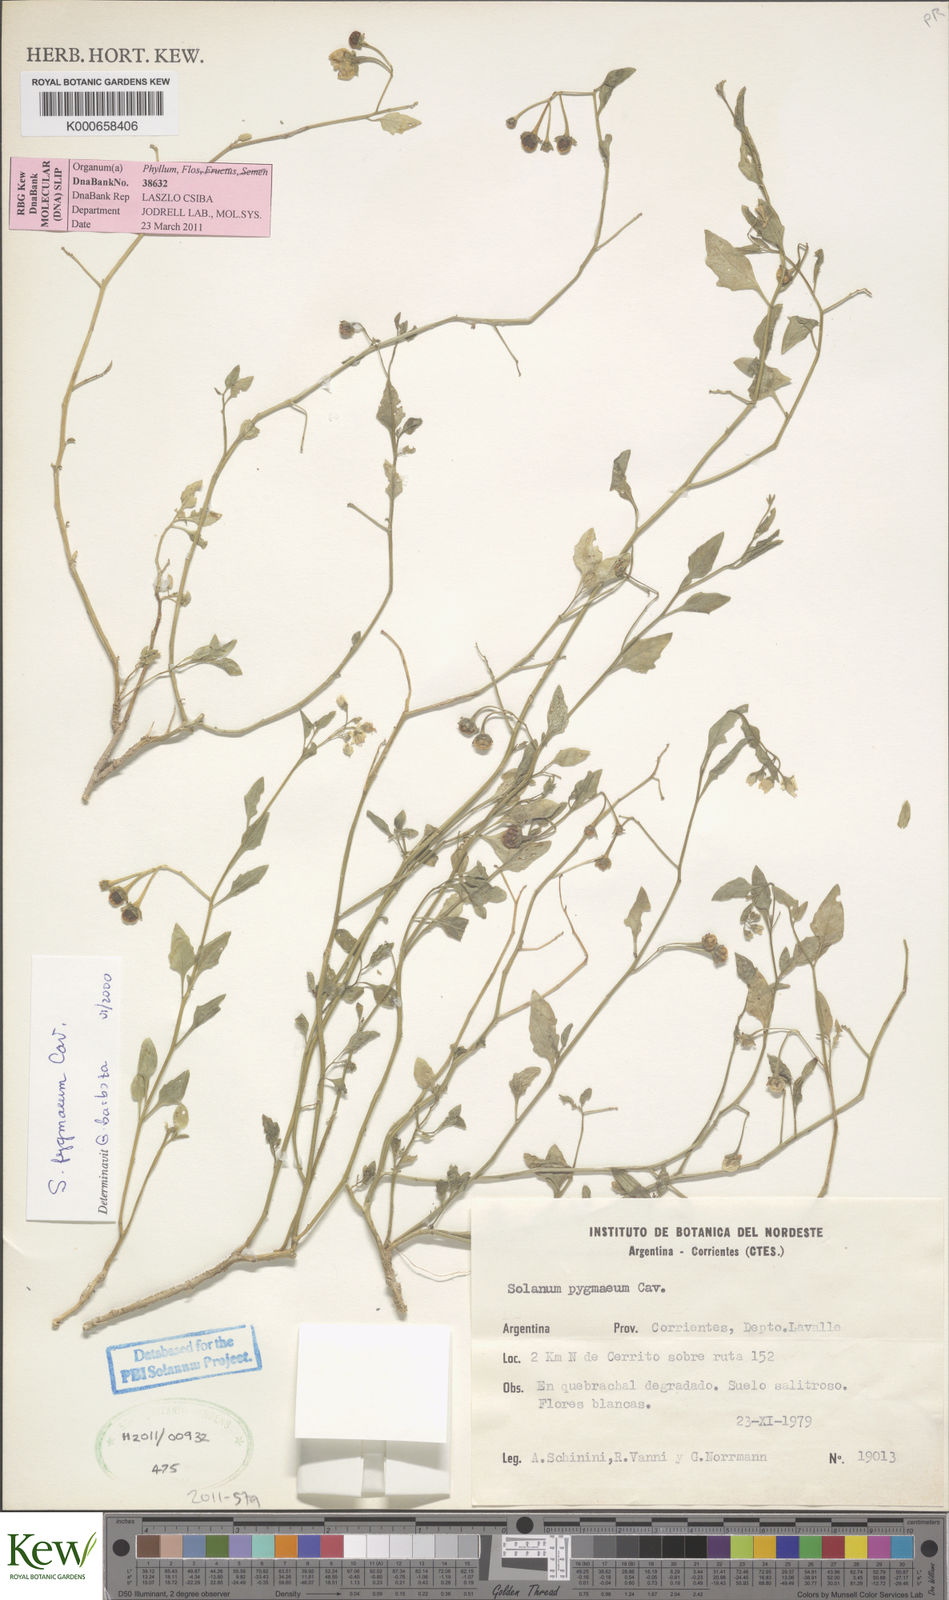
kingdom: Plantae
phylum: Tracheophyta
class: Magnoliopsida
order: Solanales
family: Solanaceae
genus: Solanum
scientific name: Solanum pygmaeum
